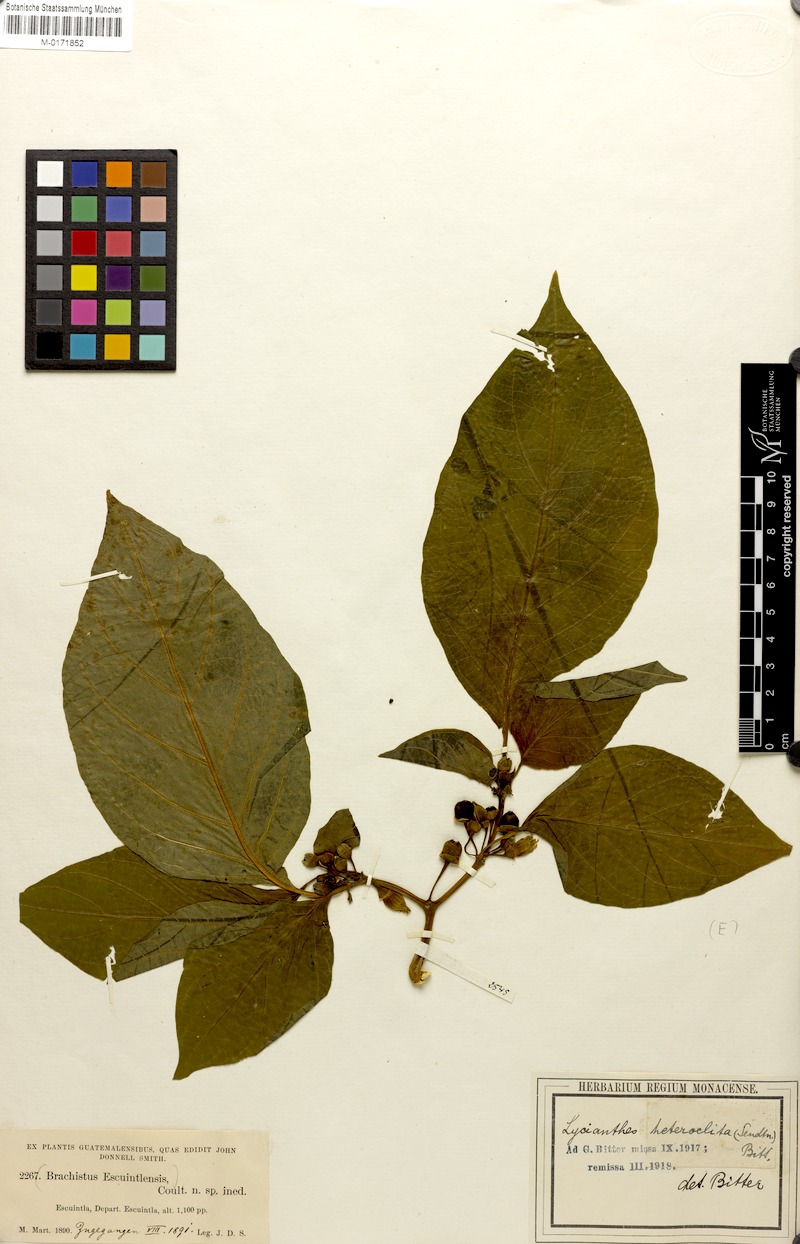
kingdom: Plantae
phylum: Tracheophyta
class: Magnoliopsida
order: Solanales
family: Solanaceae
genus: Lycianthes
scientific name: Lycianthes heteroclita
